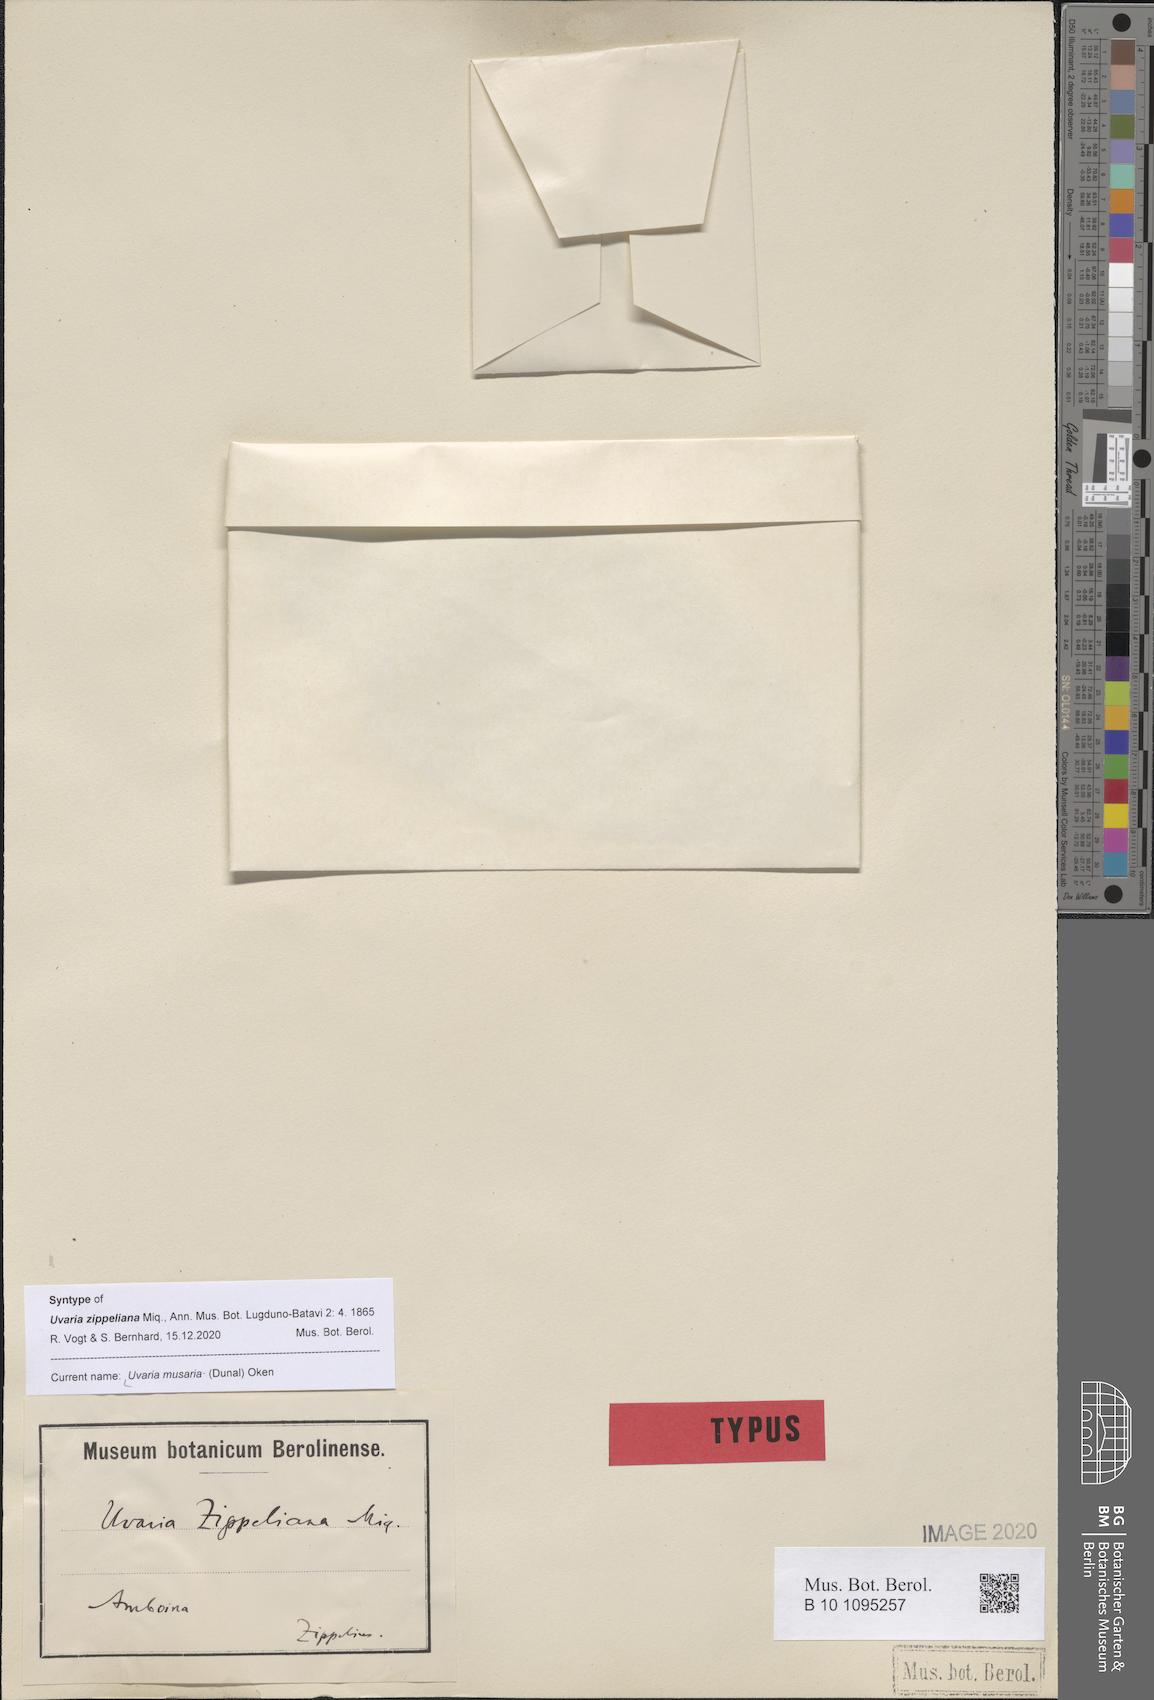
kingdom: Plantae
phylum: Tracheophyta
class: Magnoliopsida
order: Magnoliales
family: Annonaceae
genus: Uvaria
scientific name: Uvaria musaria
